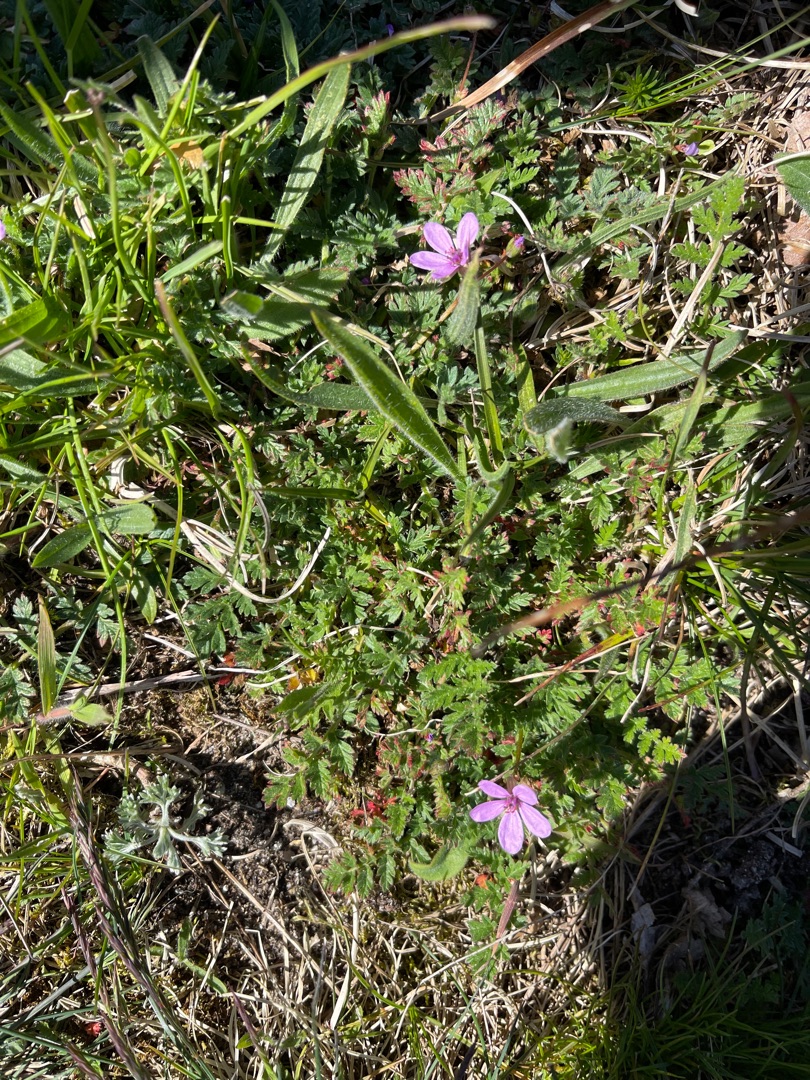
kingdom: Plantae
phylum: Tracheophyta
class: Magnoliopsida
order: Geraniales
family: Geraniaceae
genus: Erodium
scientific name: Erodium cicutarium
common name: Hejrenæb
